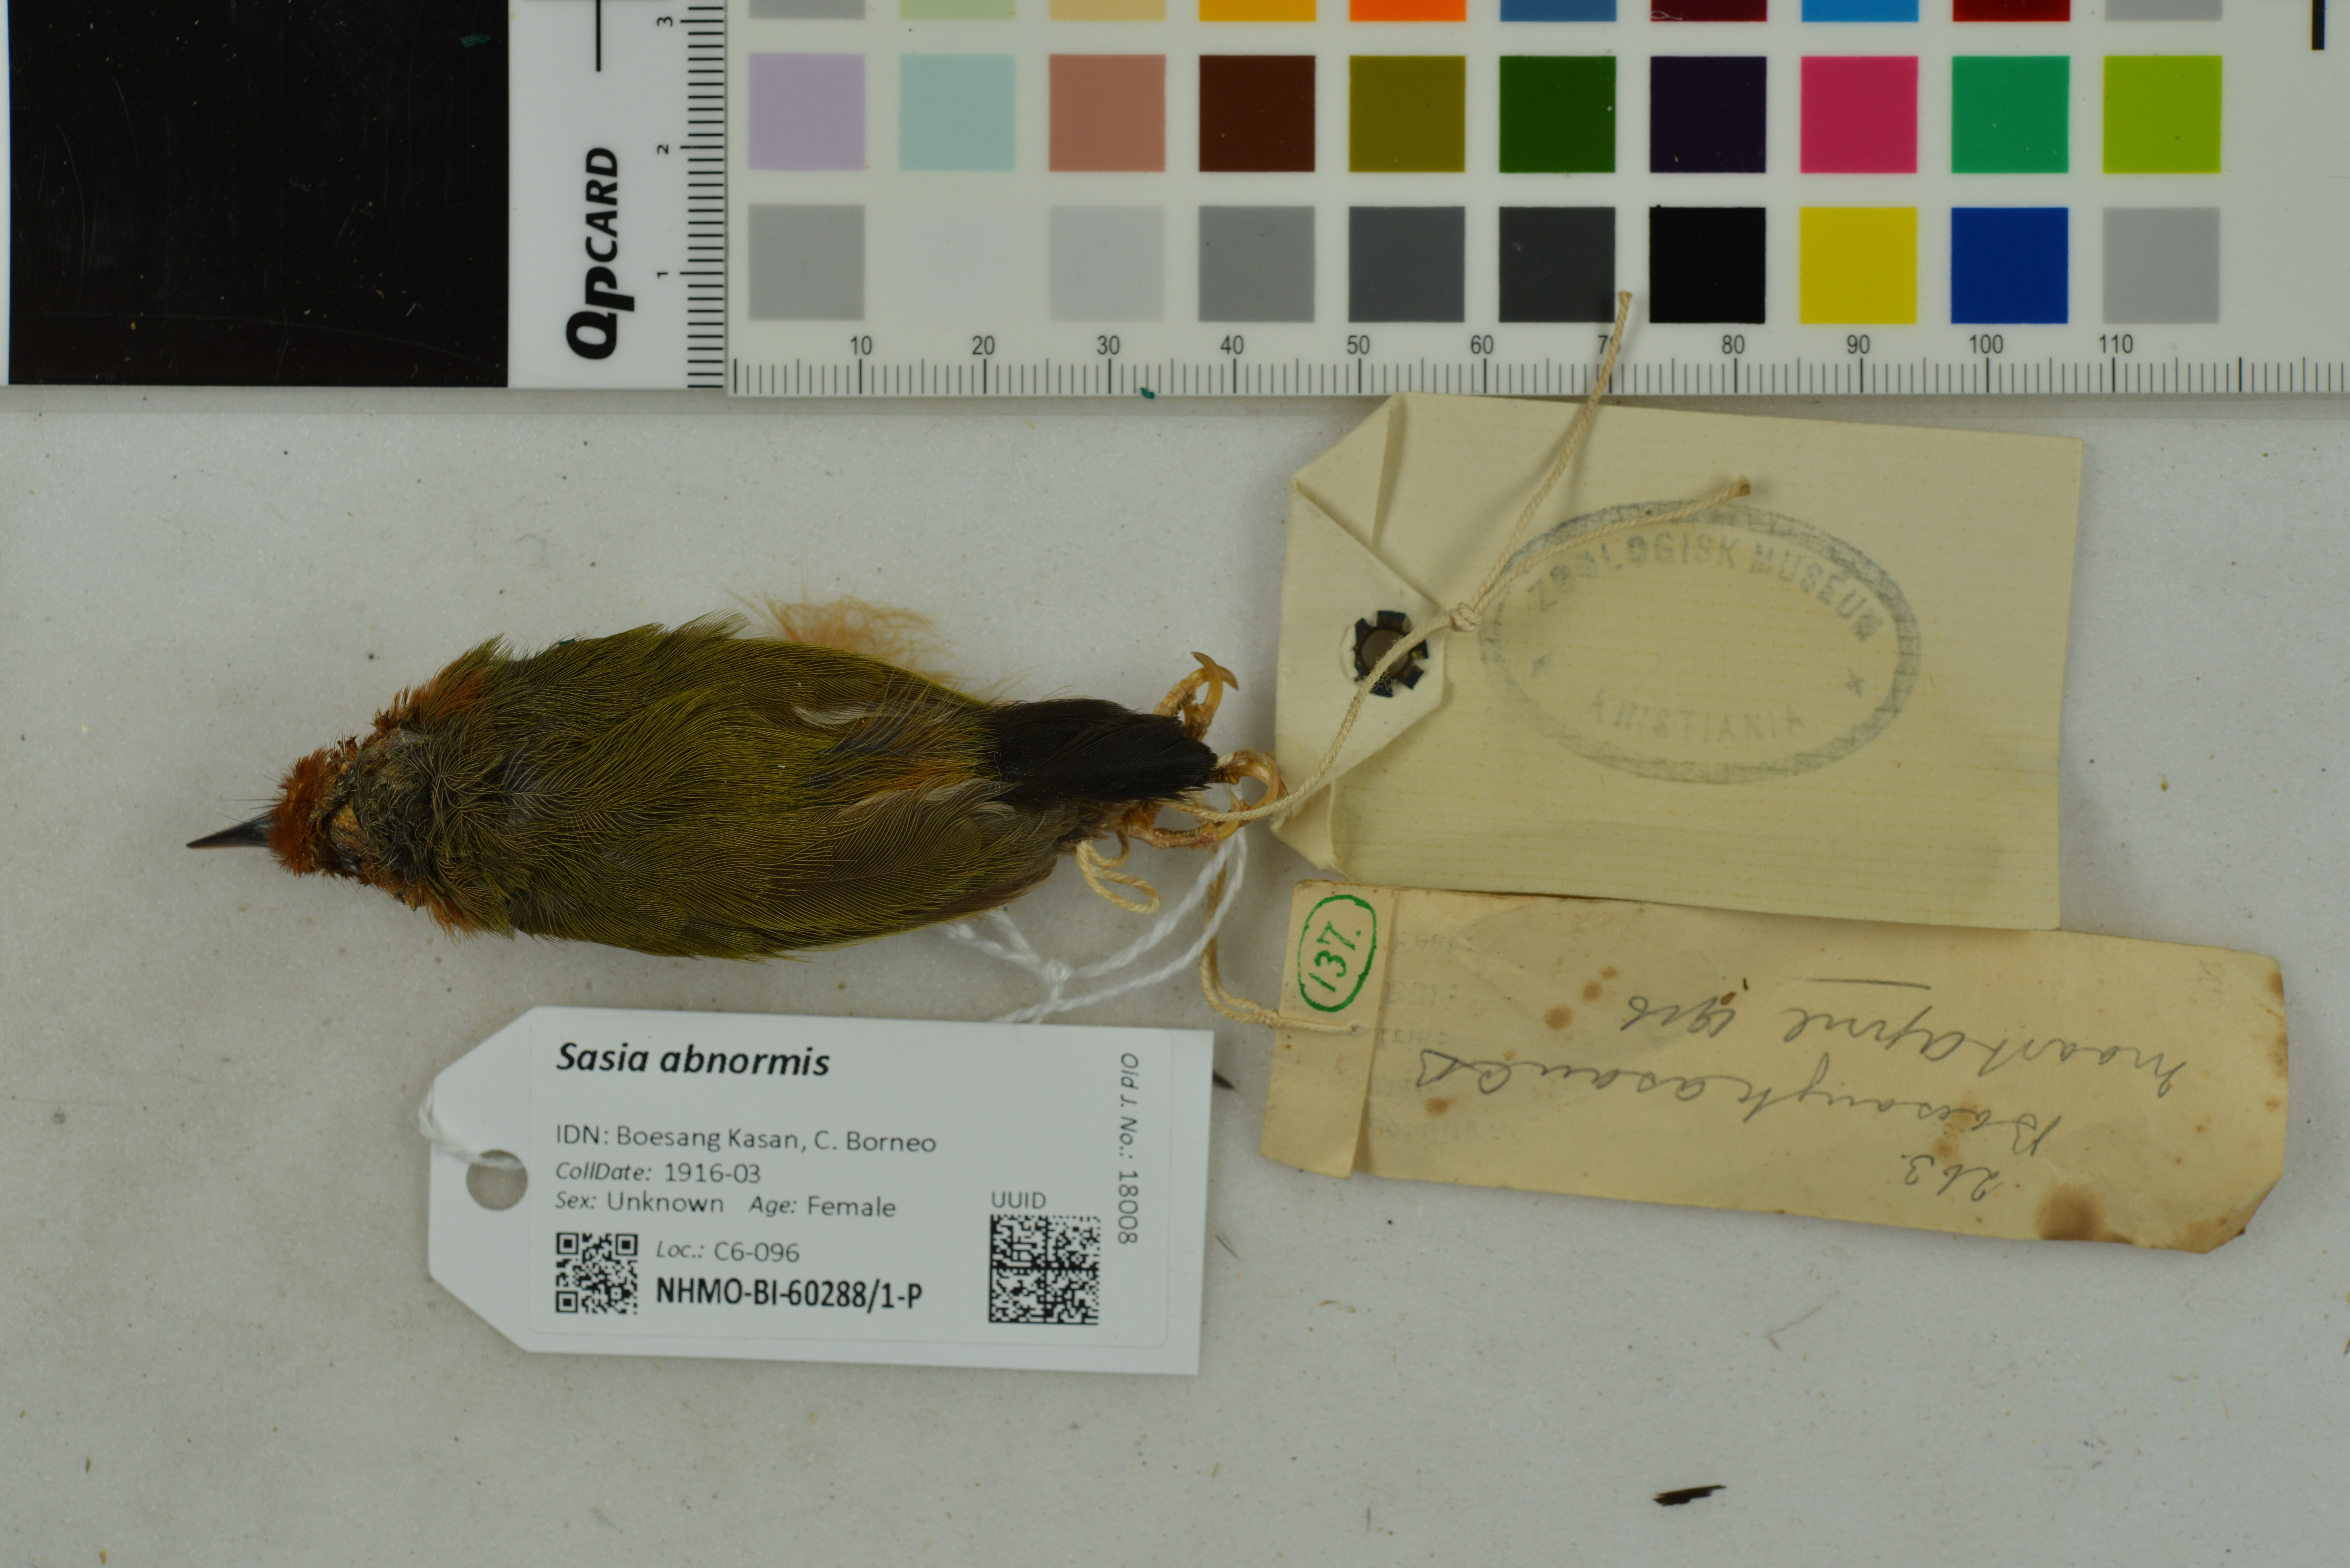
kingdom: Animalia
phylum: Chordata
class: Aves
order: Piciformes
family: Picidae
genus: Sasia
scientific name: Sasia abnormis
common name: Rufous piculet
